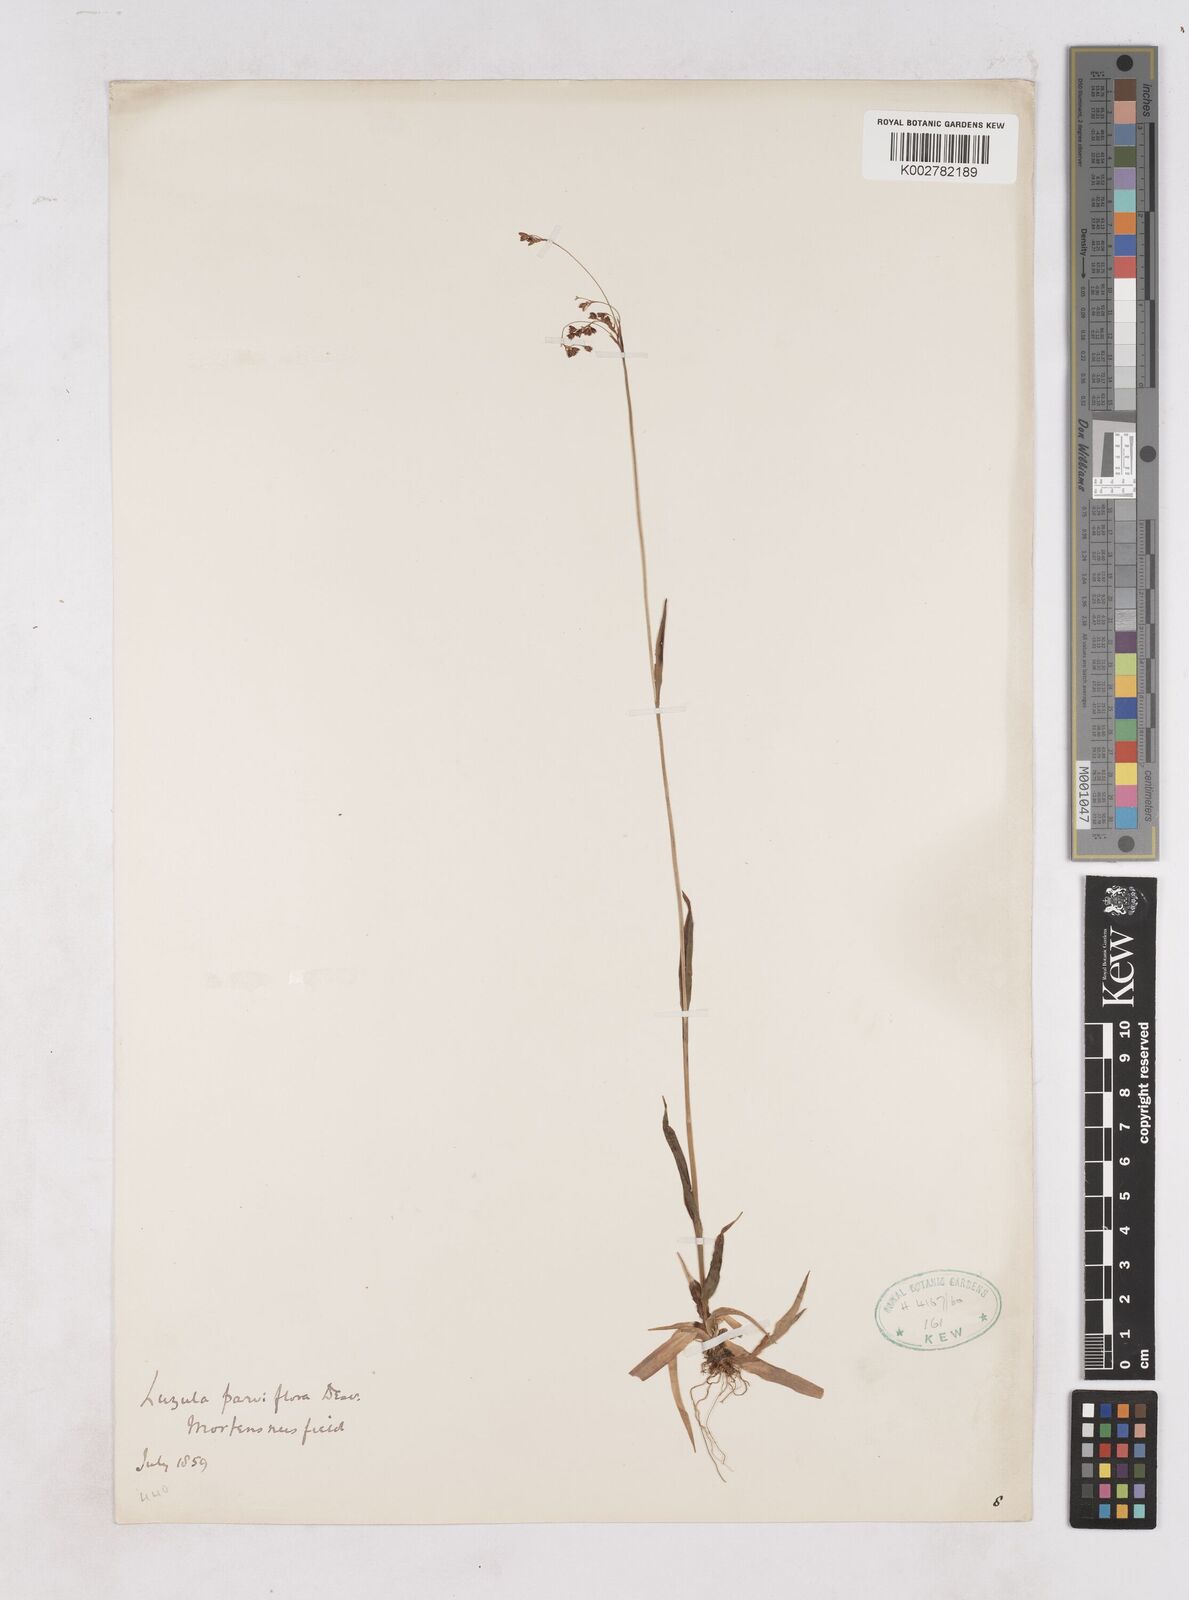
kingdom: Plantae
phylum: Tracheophyta
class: Liliopsida
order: Poales
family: Juncaceae
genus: Luzula
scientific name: Luzula parviflora
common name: Millet woodrush
